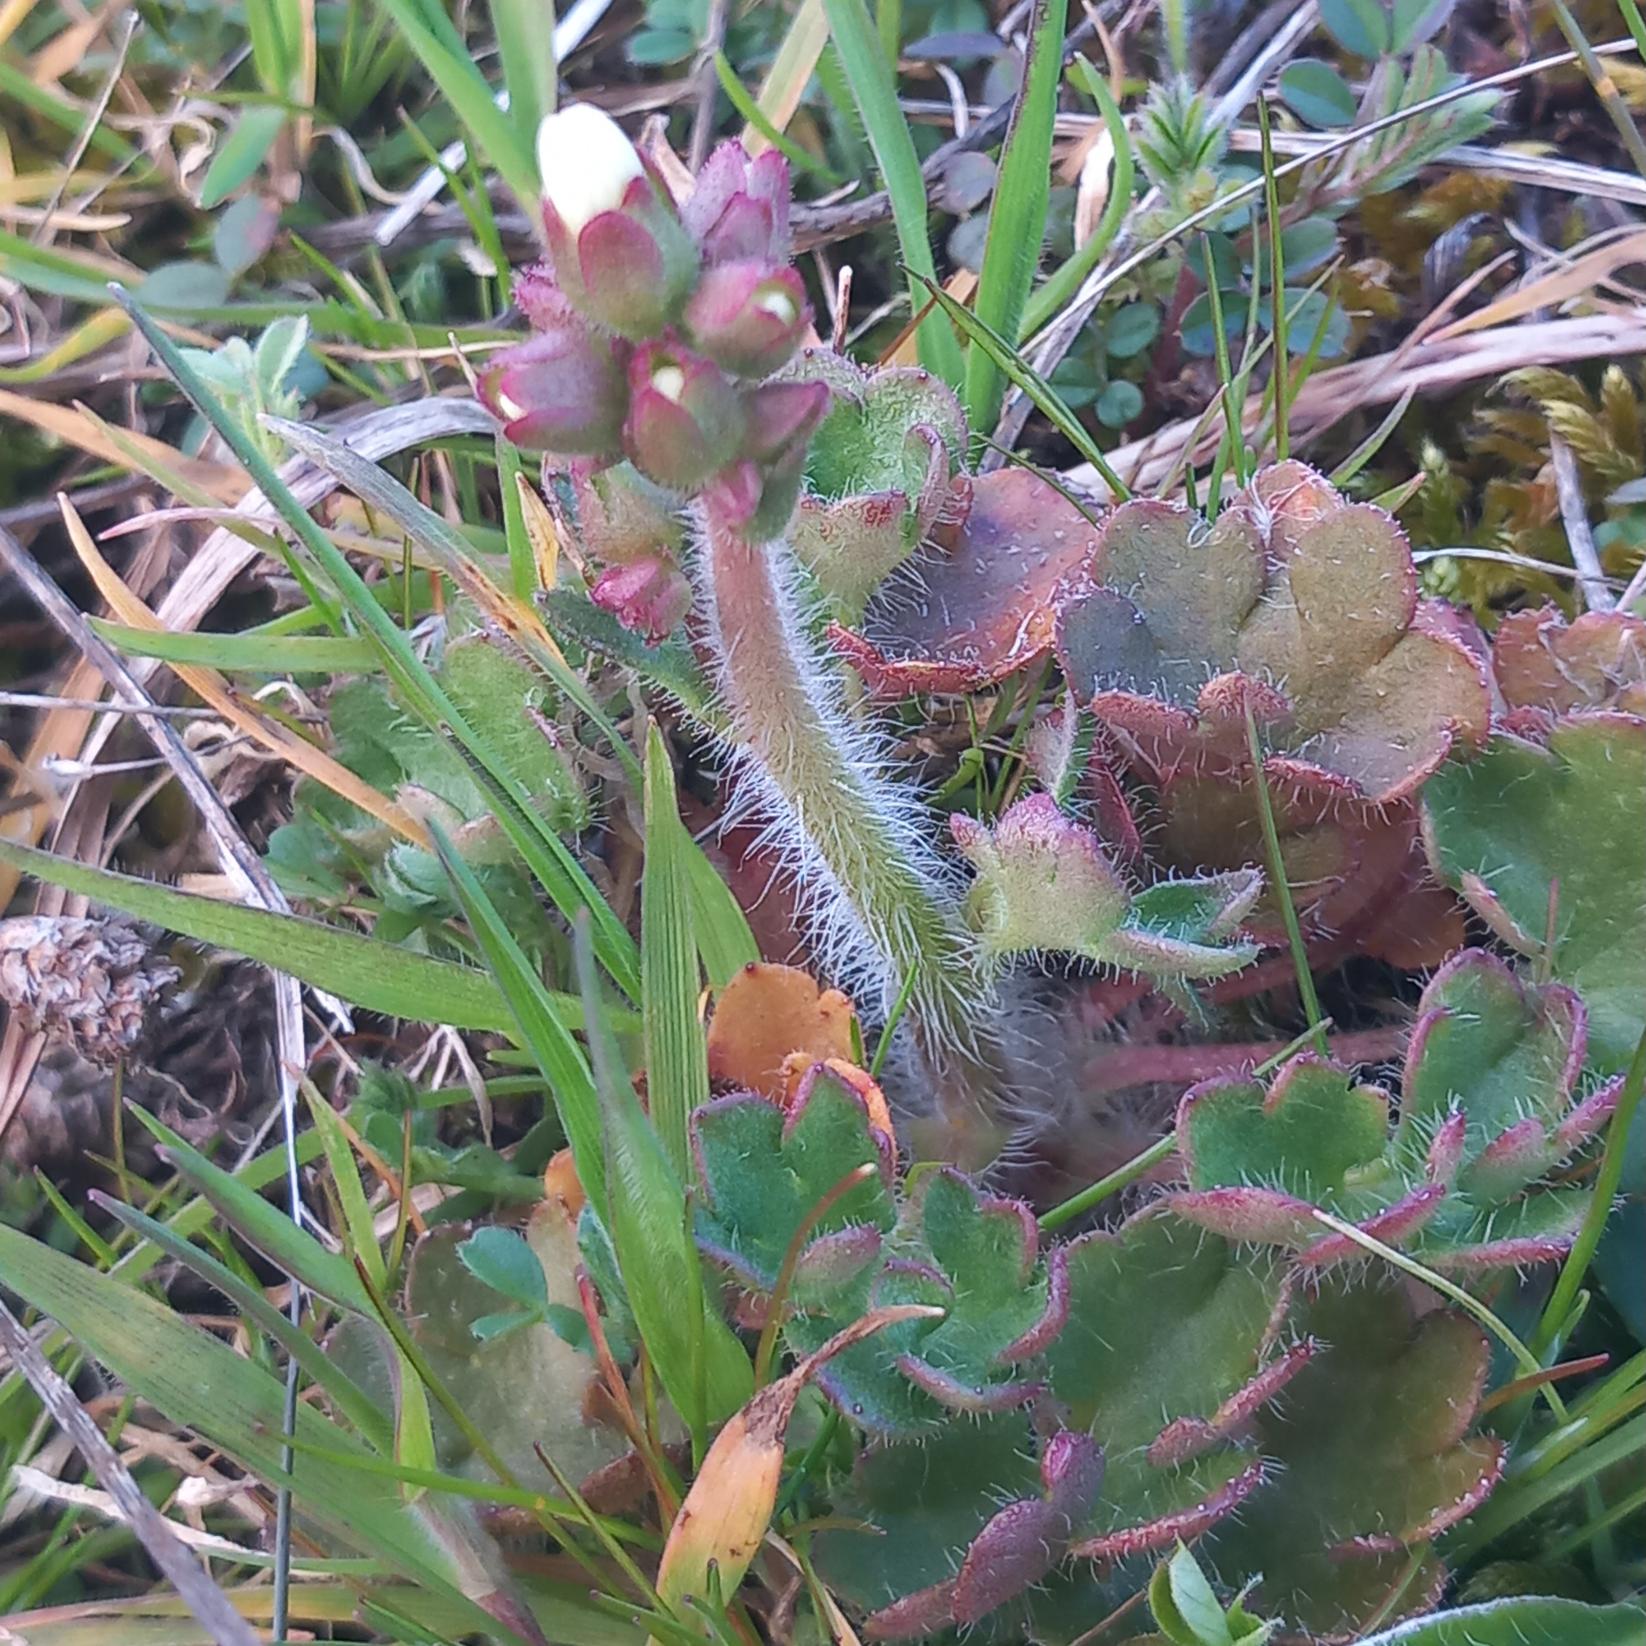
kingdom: Plantae
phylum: Tracheophyta
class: Magnoliopsida
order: Saxifragales
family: Saxifragaceae
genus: Saxifraga
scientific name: Saxifraga granulata
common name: Kornet stenbræk
